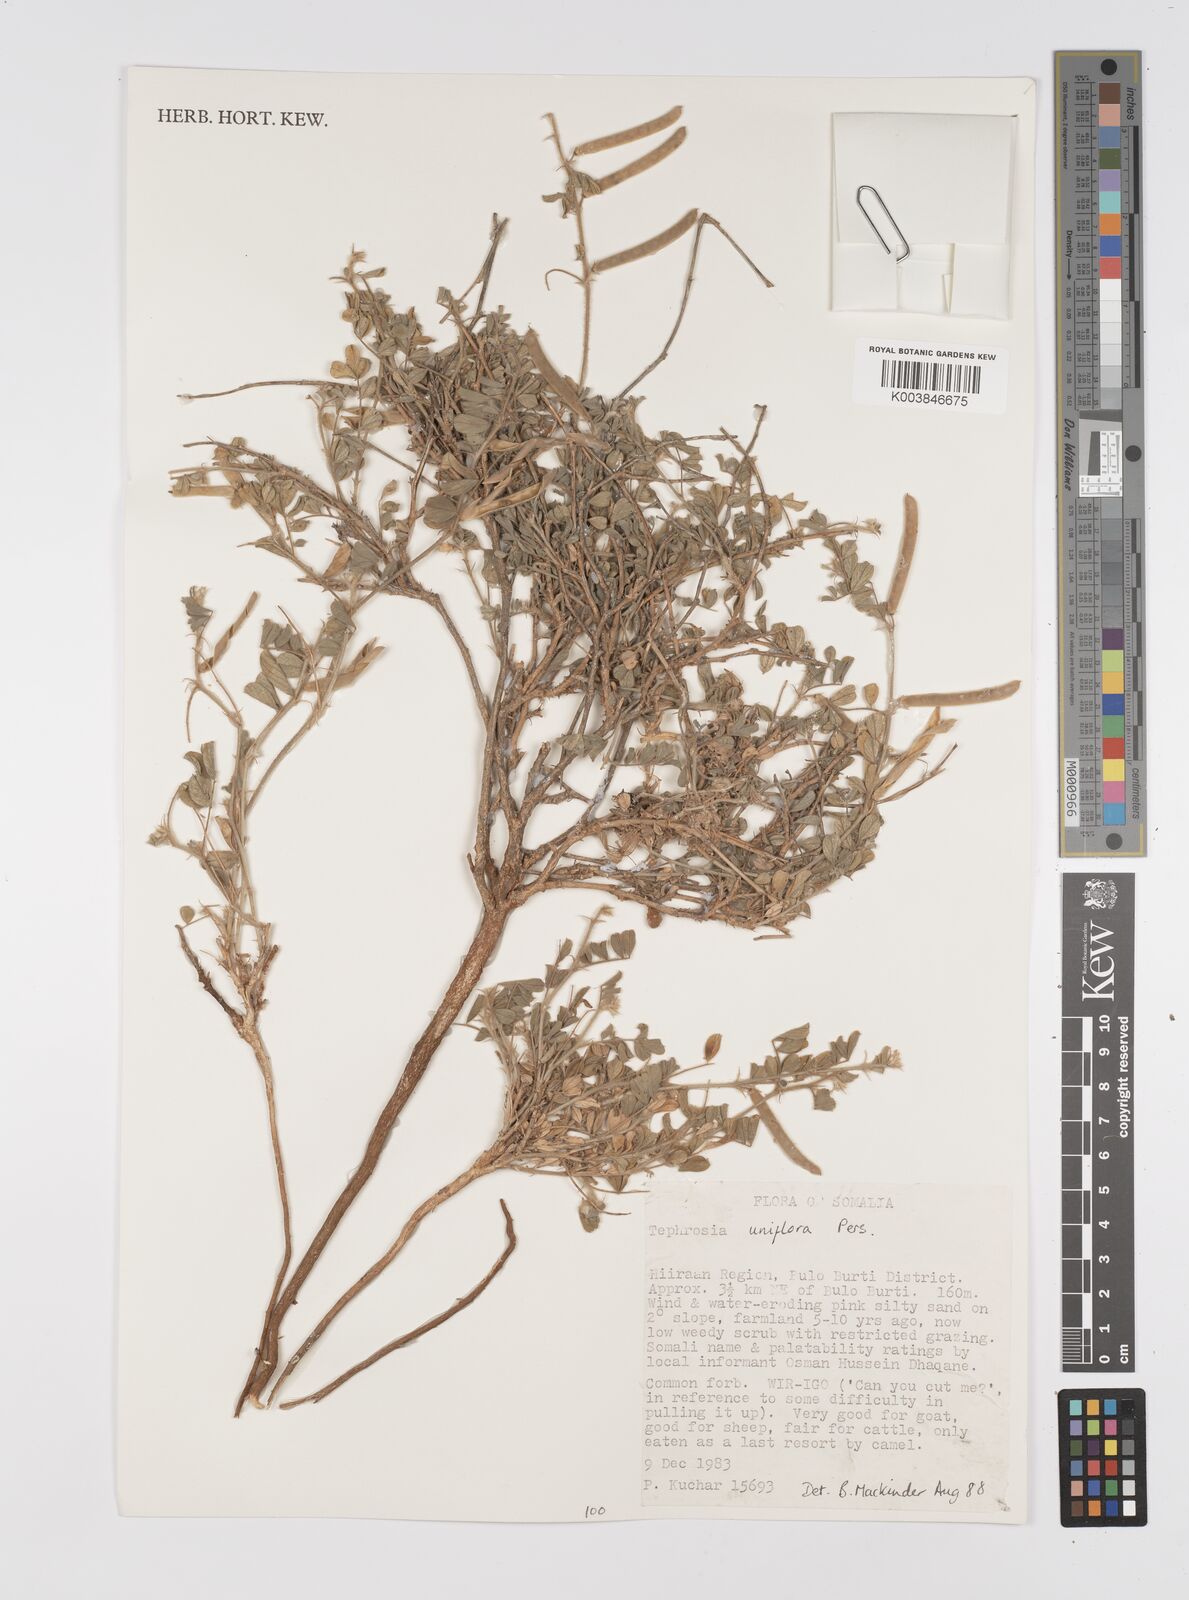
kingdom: Plantae
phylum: Tracheophyta
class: Magnoliopsida
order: Fabales
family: Fabaceae
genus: Tephrosia
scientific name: Tephrosia uniflora
